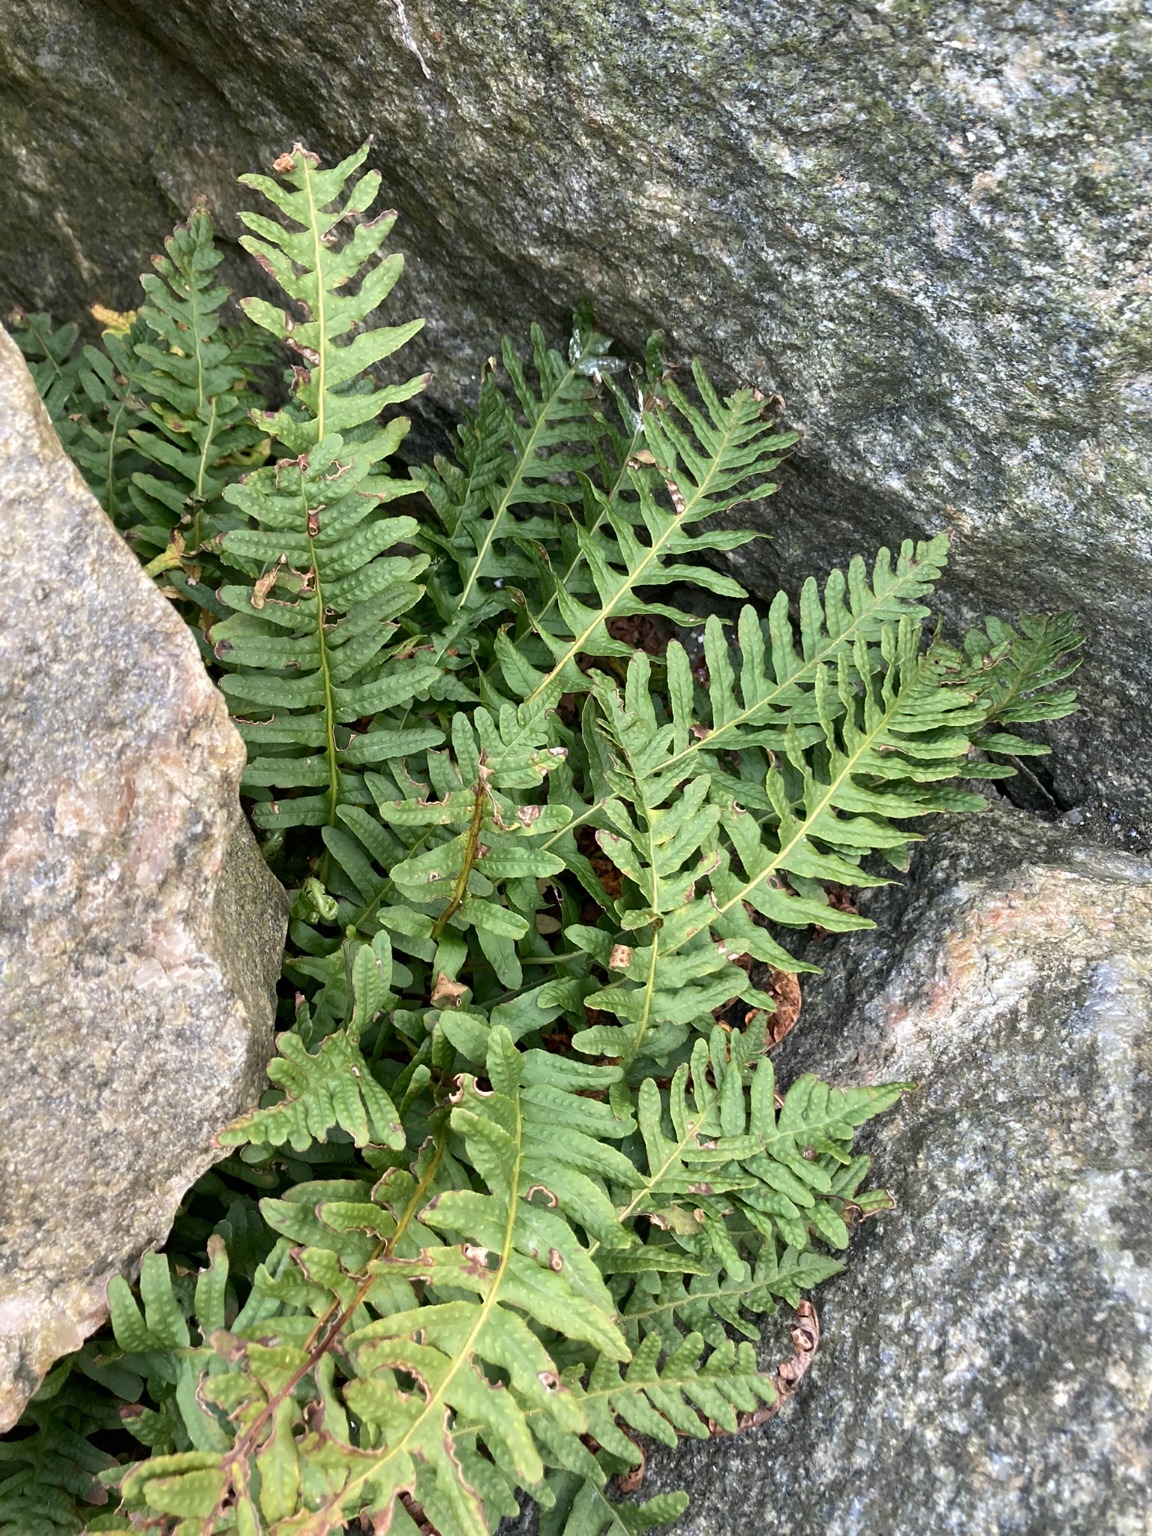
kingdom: Plantae
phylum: Tracheophyta
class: Polypodiopsida
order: Polypodiales
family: Polypodiaceae
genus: Polypodium
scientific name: Polypodium vulgare
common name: Almindelig engelsød
